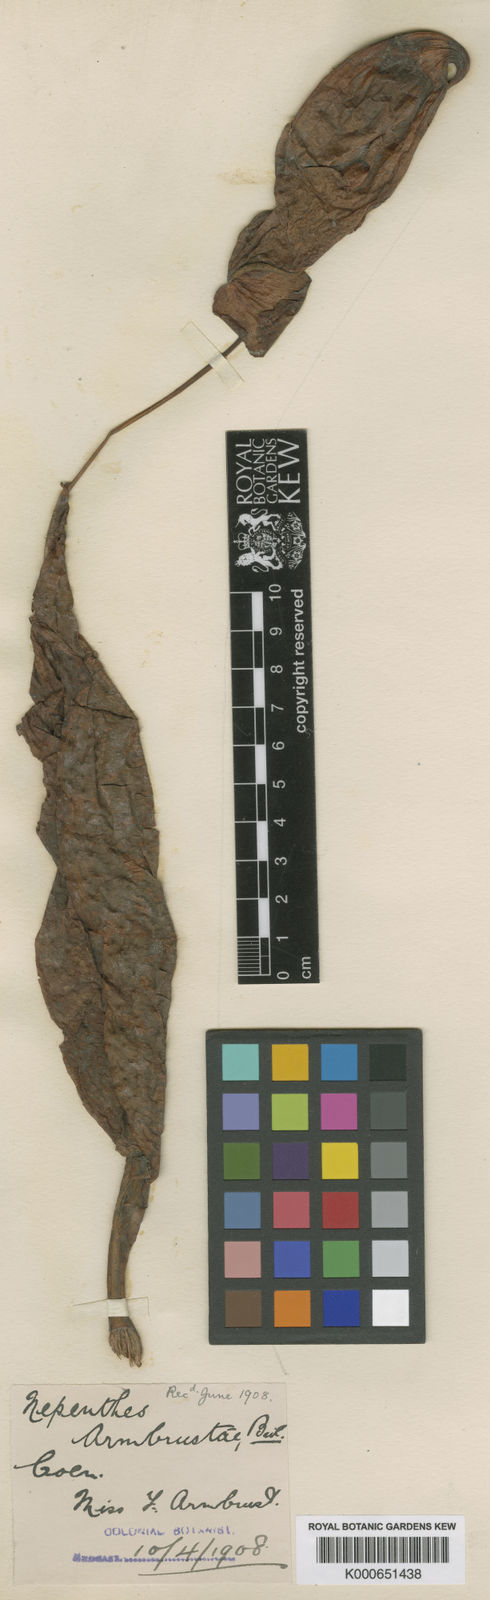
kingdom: Plantae
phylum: Tracheophyta
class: Magnoliopsida
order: Caryophyllales
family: Nepenthaceae
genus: Nepenthes
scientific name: Nepenthes mirabilis
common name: Tropical pitcherplant
